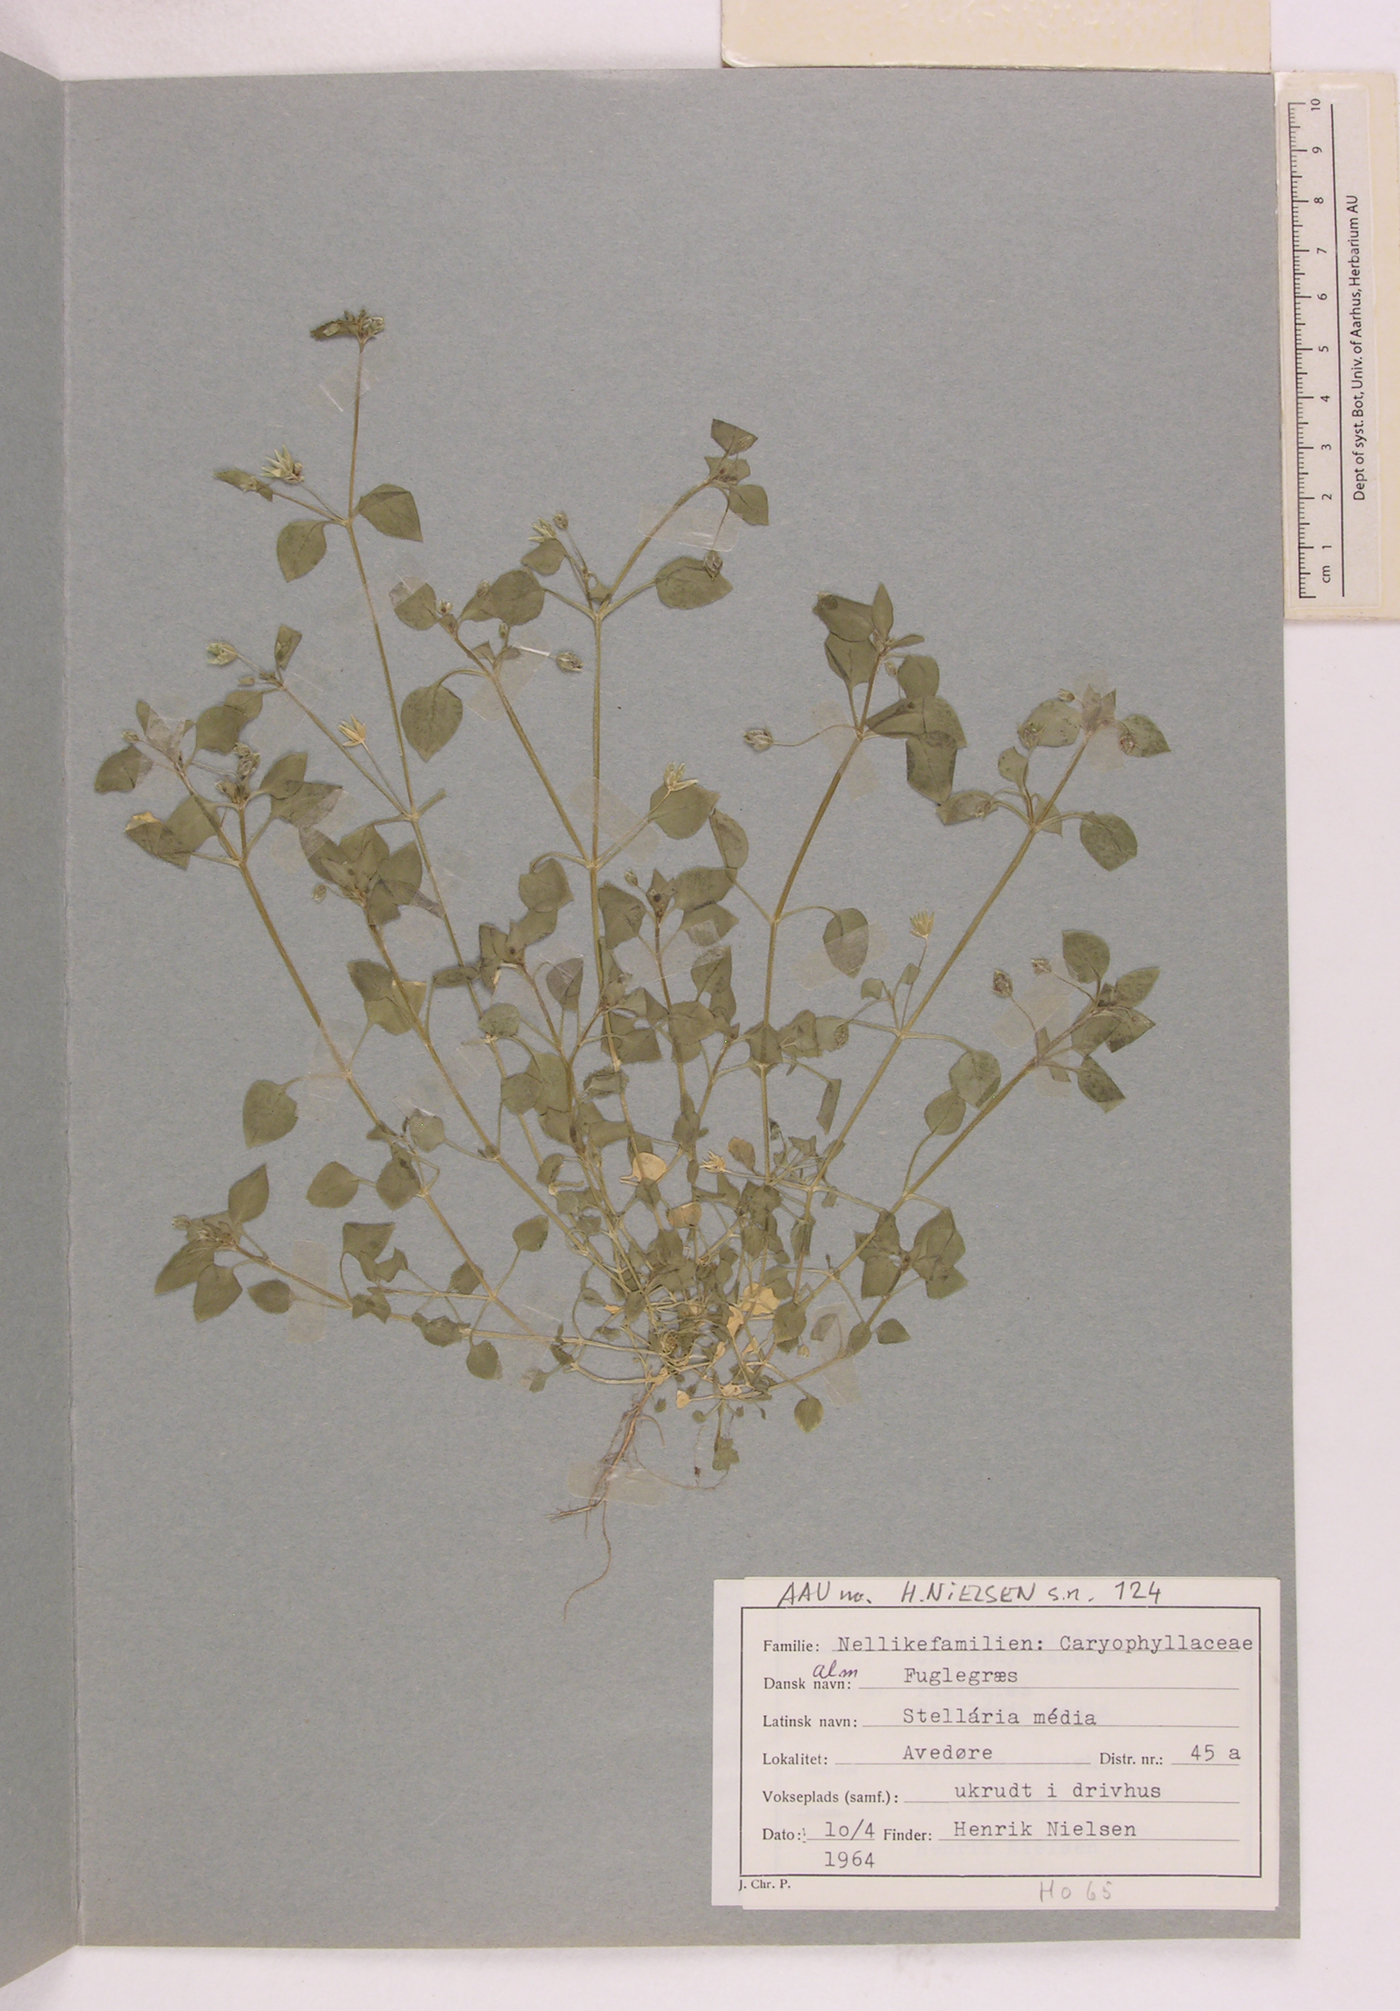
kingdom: Plantae
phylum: Tracheophyta
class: Magnoliopsida
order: Caryophyllales
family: Caryophyllaceae
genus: Stellaria
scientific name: Stellaria media
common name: Common chickweed
